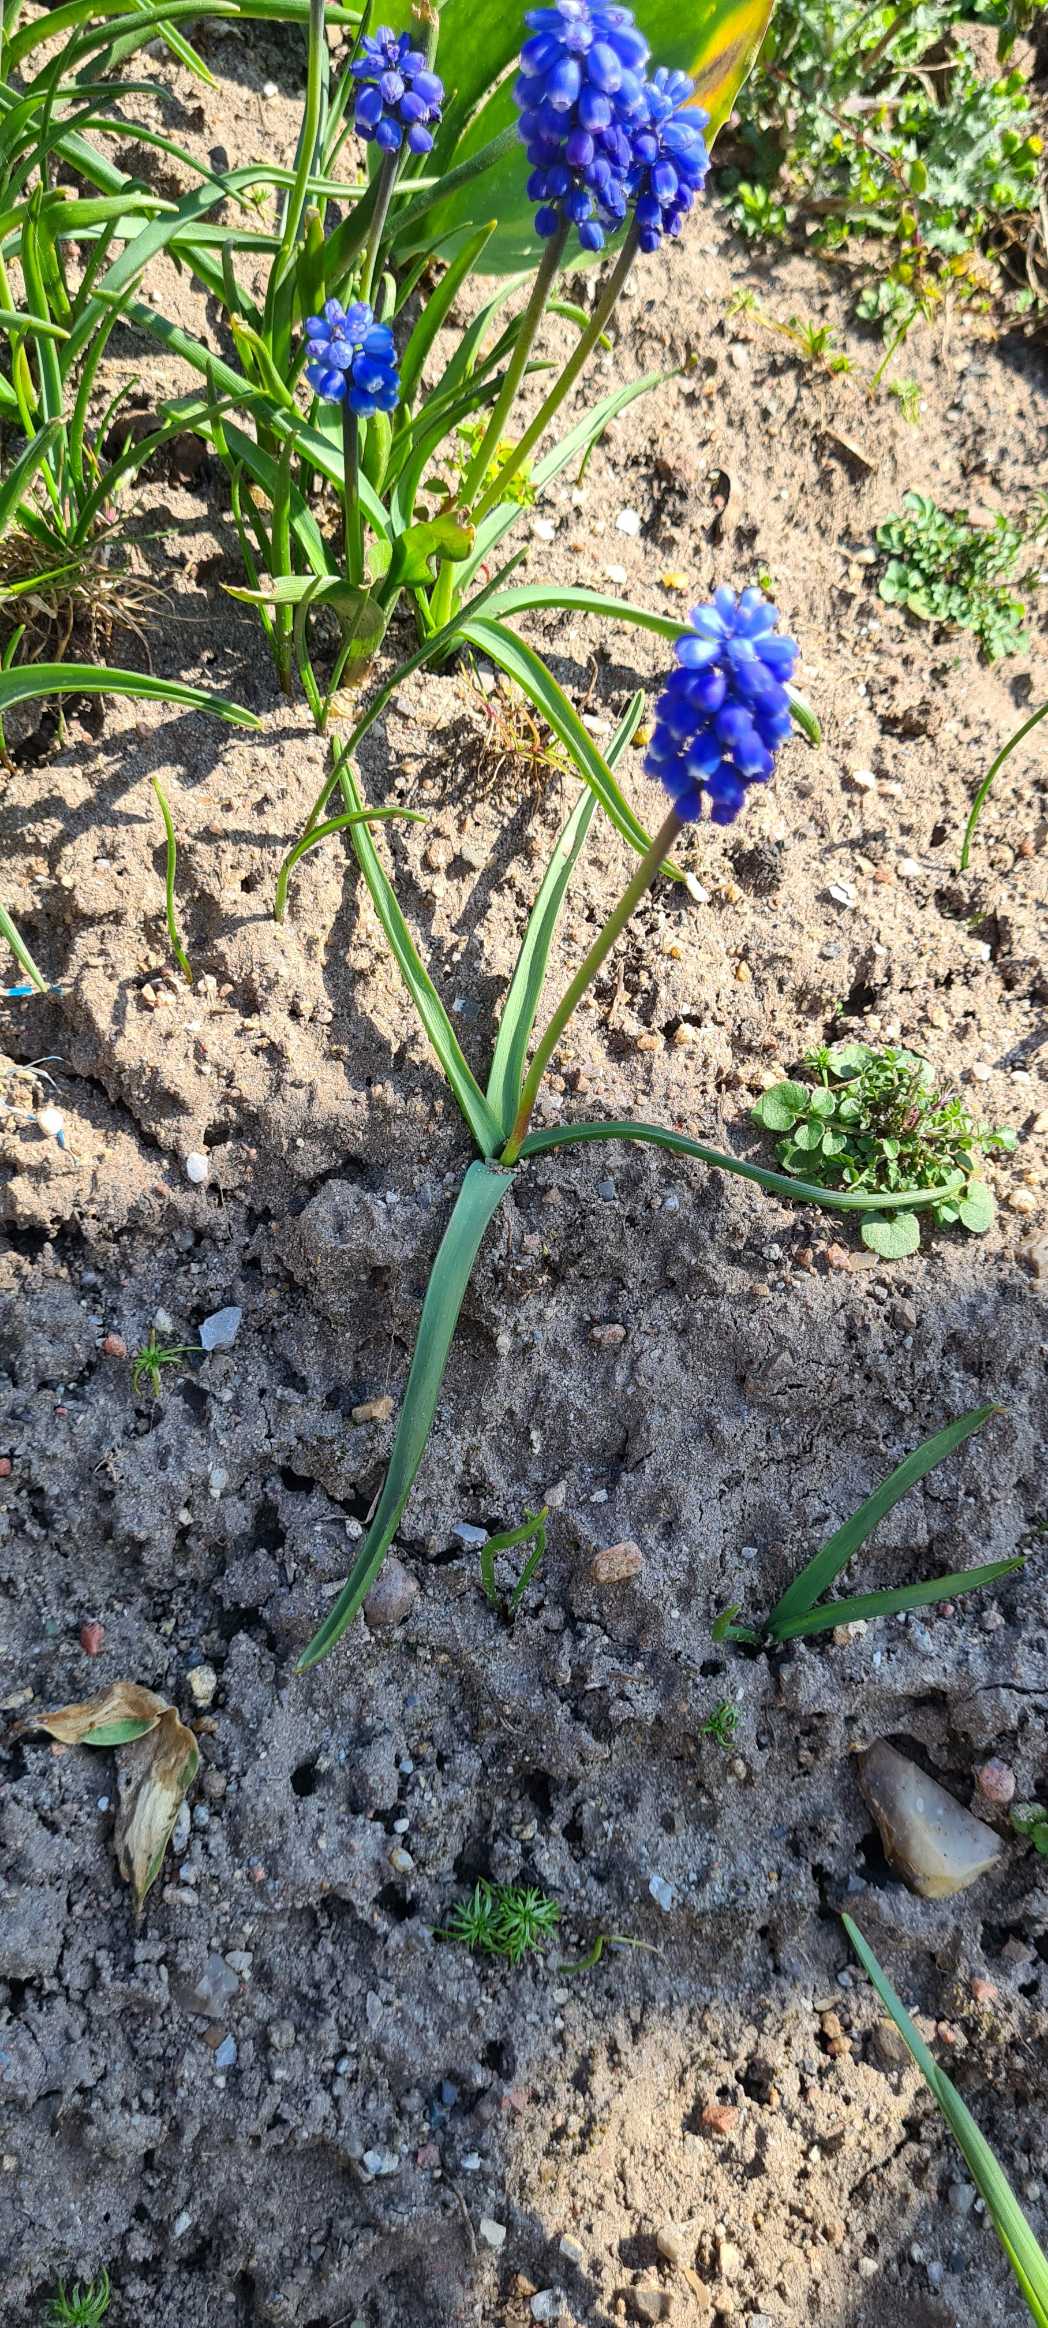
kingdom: Plantae
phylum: Tracheophyta
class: Liliopsida
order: Asparagales
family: Asparagaceae
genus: Muscari
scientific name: Muscari botryoides
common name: Perlehyacint
